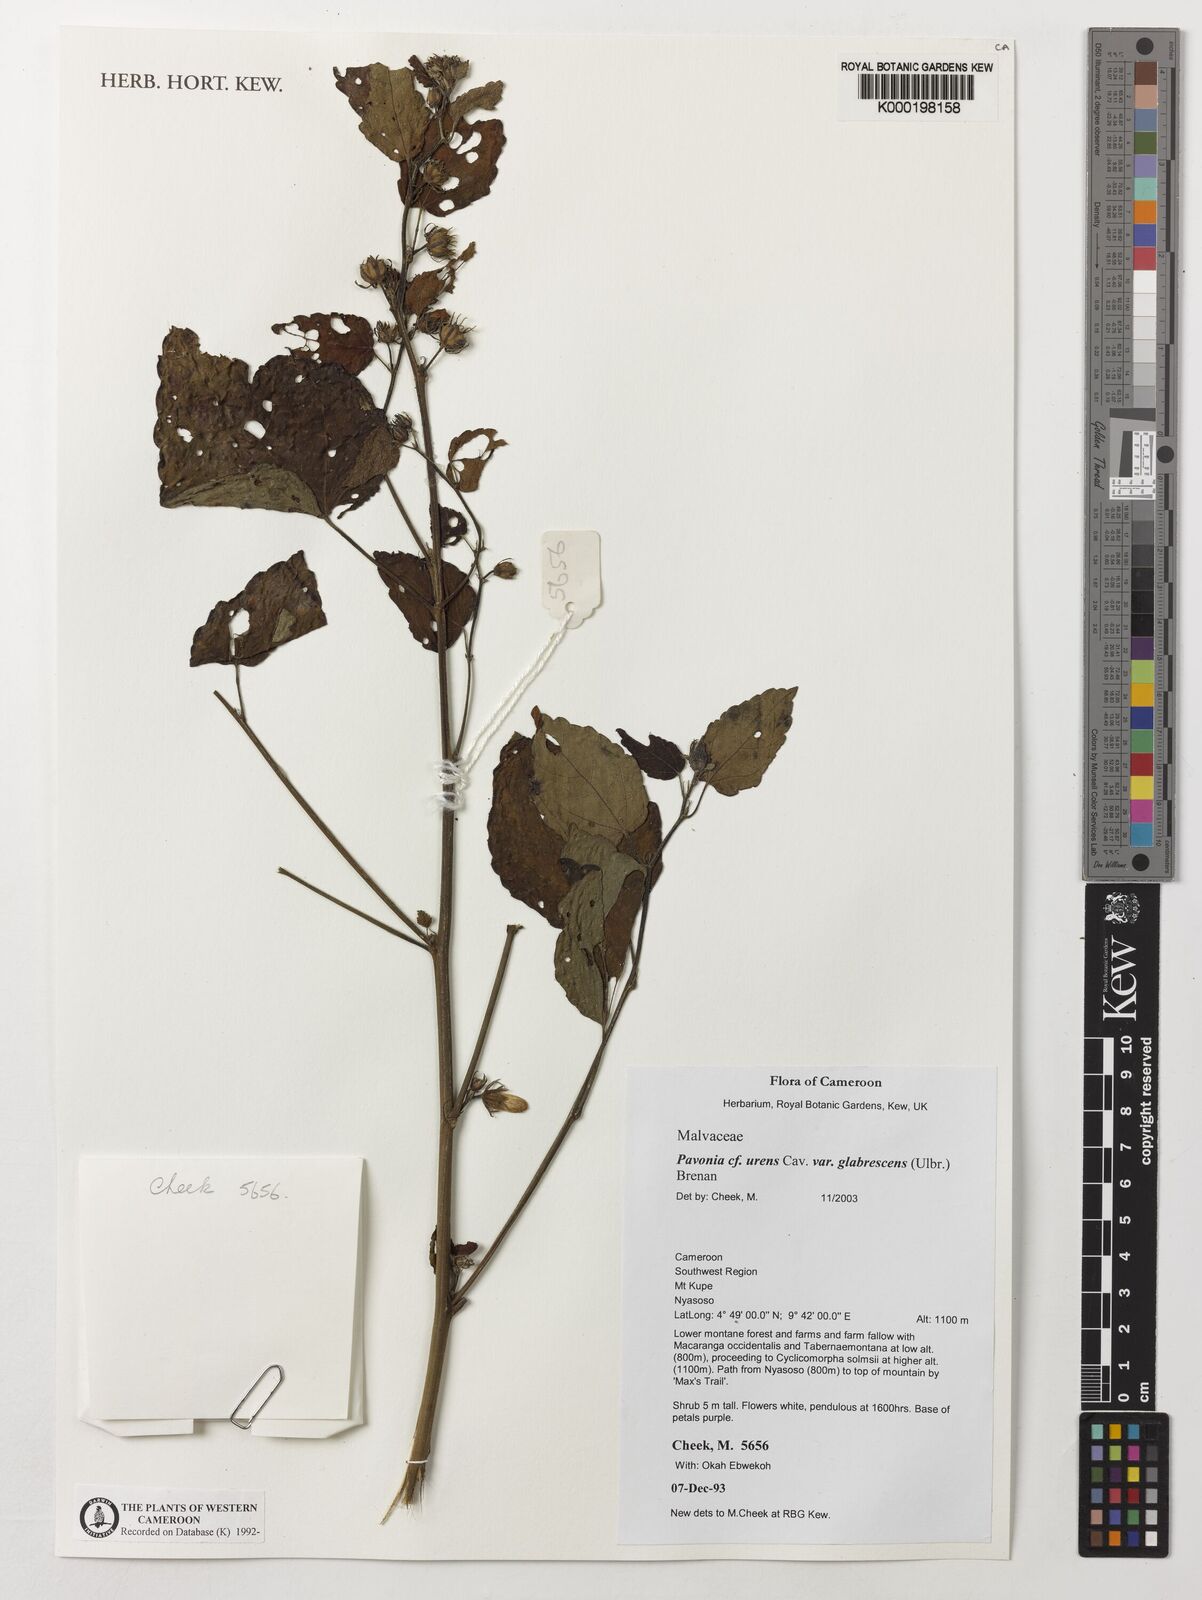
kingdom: Plantae
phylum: Tracheophyta
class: Magnoliopsida
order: Malvales
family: Malvaceae
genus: Pavonia
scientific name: Pavonia urens
